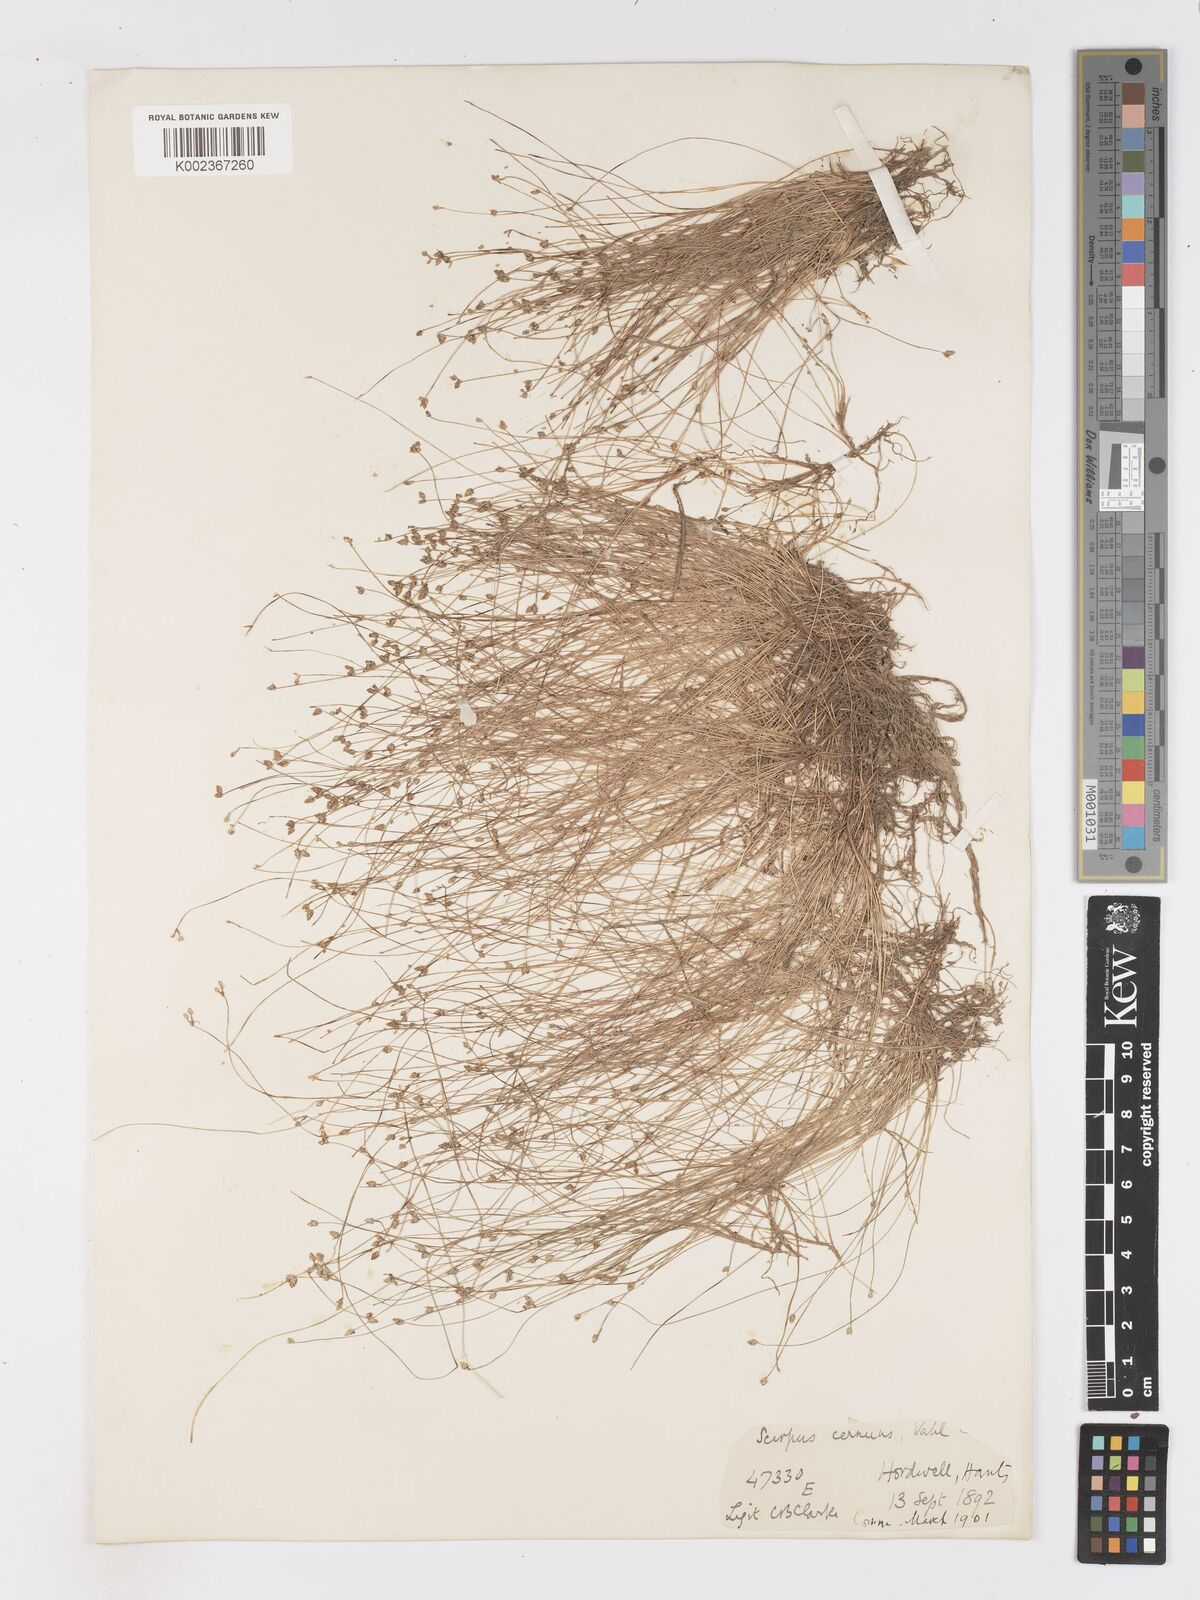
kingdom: Plantae
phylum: Tracheophyta
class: Liliopsida
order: Poales
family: Cyperaceae
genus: Isolepis
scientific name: Isolepis cernua
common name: Slender club-rush
